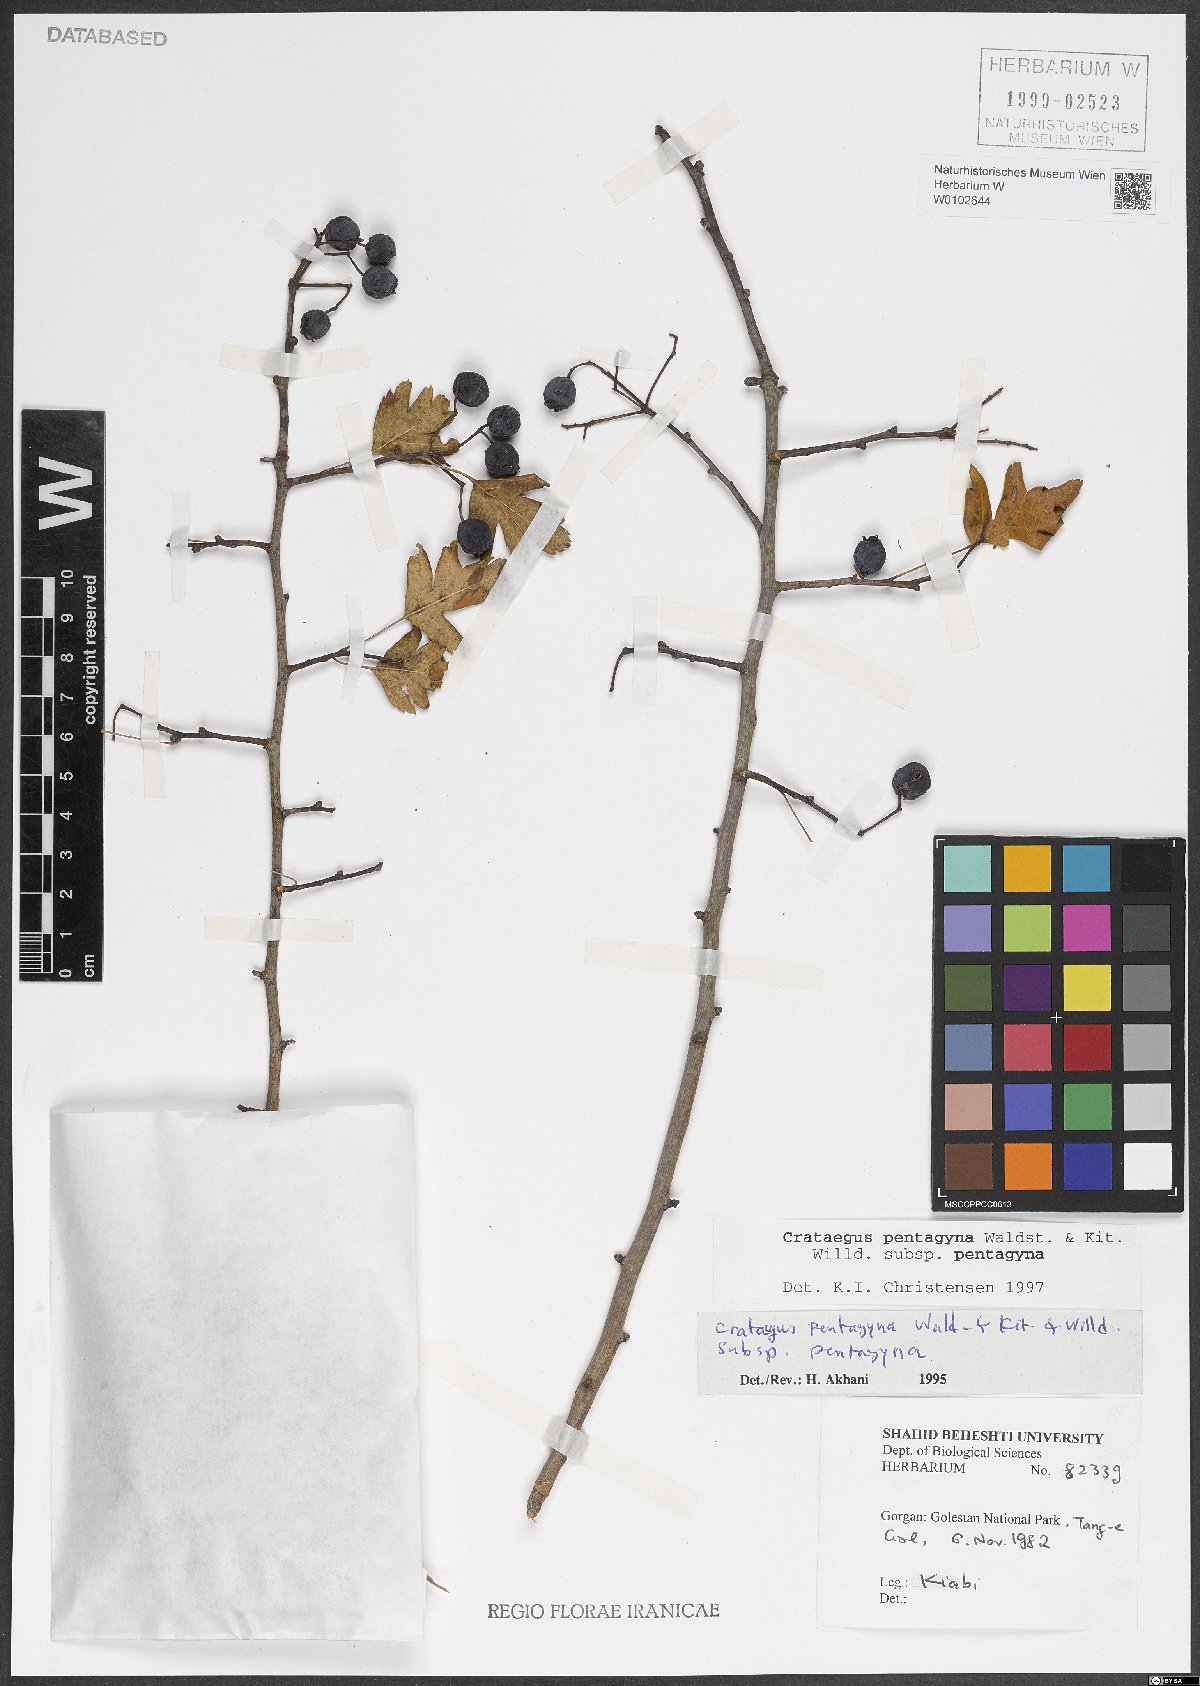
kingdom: Plantae
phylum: Tracheophyta
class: Magnoliopsida
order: Rosales
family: Rosaceae
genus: Crataegus
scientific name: Crataegus pentagyna
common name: Small-flowered black hawthorn
